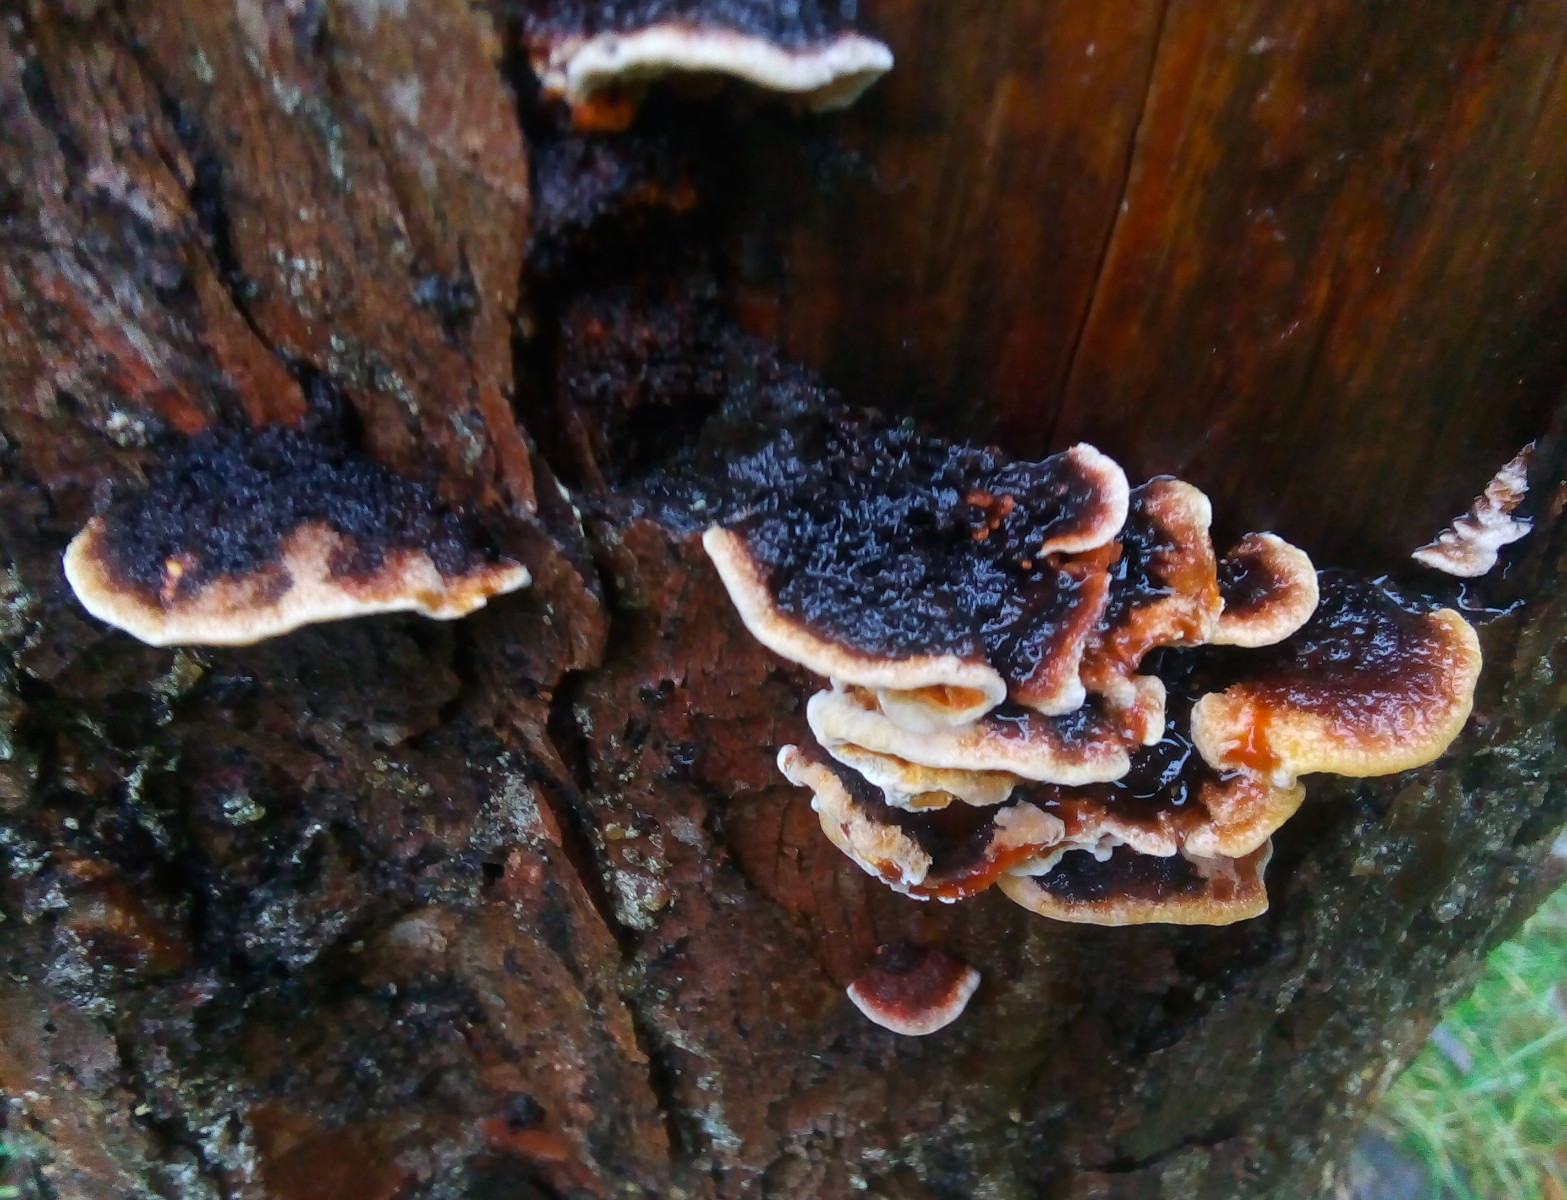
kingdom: Fungi
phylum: Basidiomycota
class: Agaricomycetes
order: Gloeophyllales
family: Gloeophyllaceae
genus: Gloeophyllum
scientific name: Gloeophyllum sepiarium
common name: fyrre-korkhat
